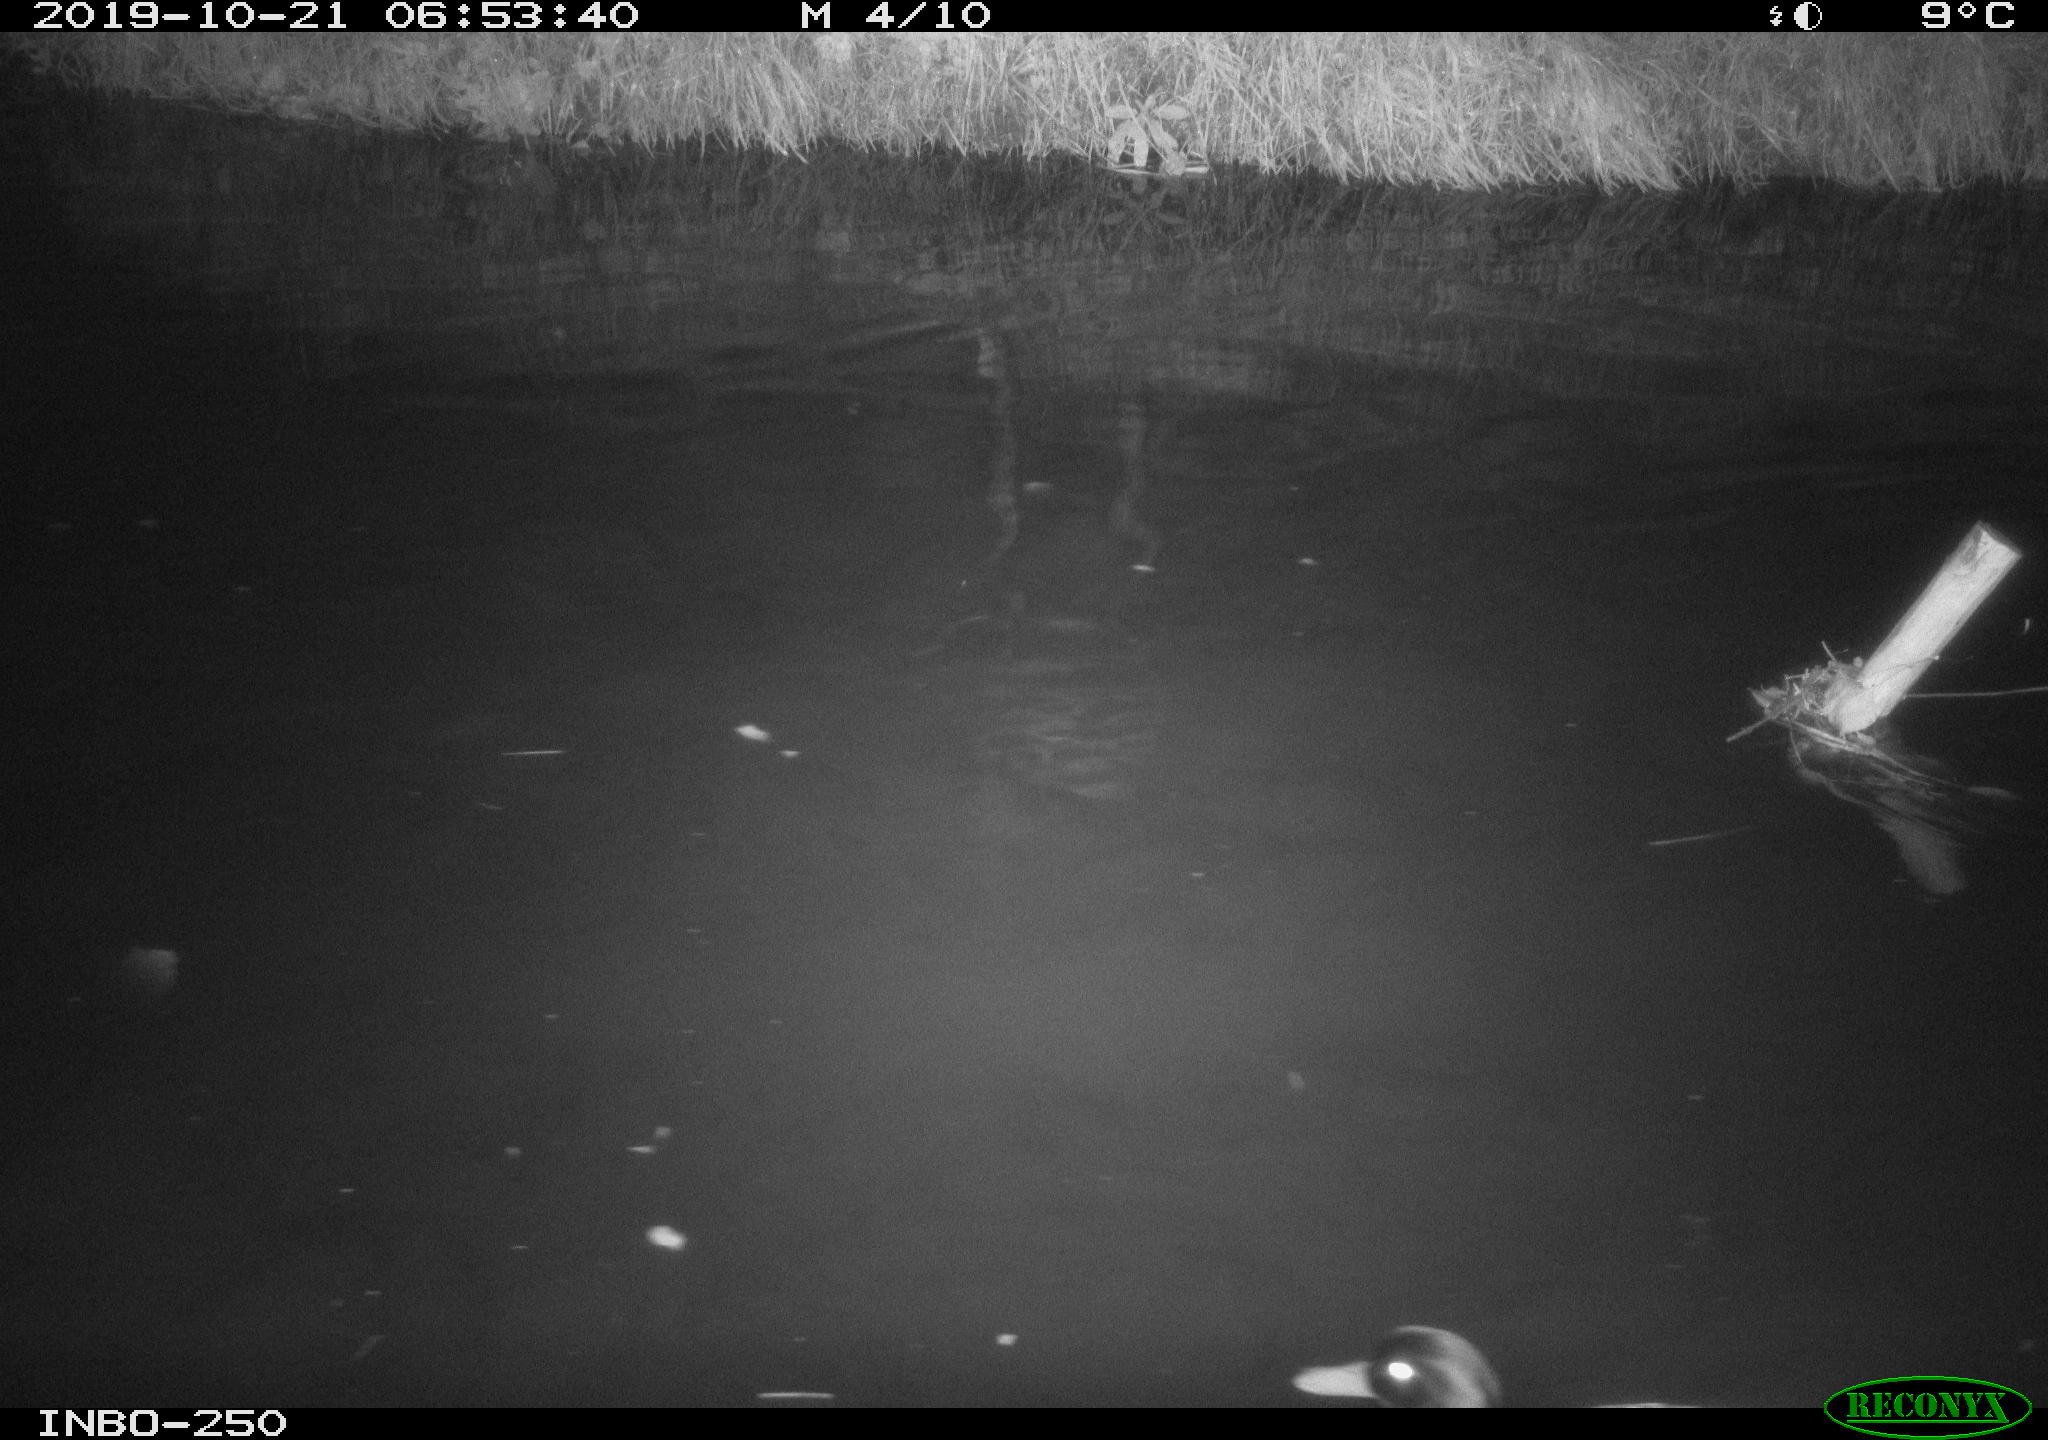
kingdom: Animalia
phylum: Chordata
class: Aves
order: Anseriformes
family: Anatidae
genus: Anas
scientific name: Anas platyrhynchos
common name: Mallard
